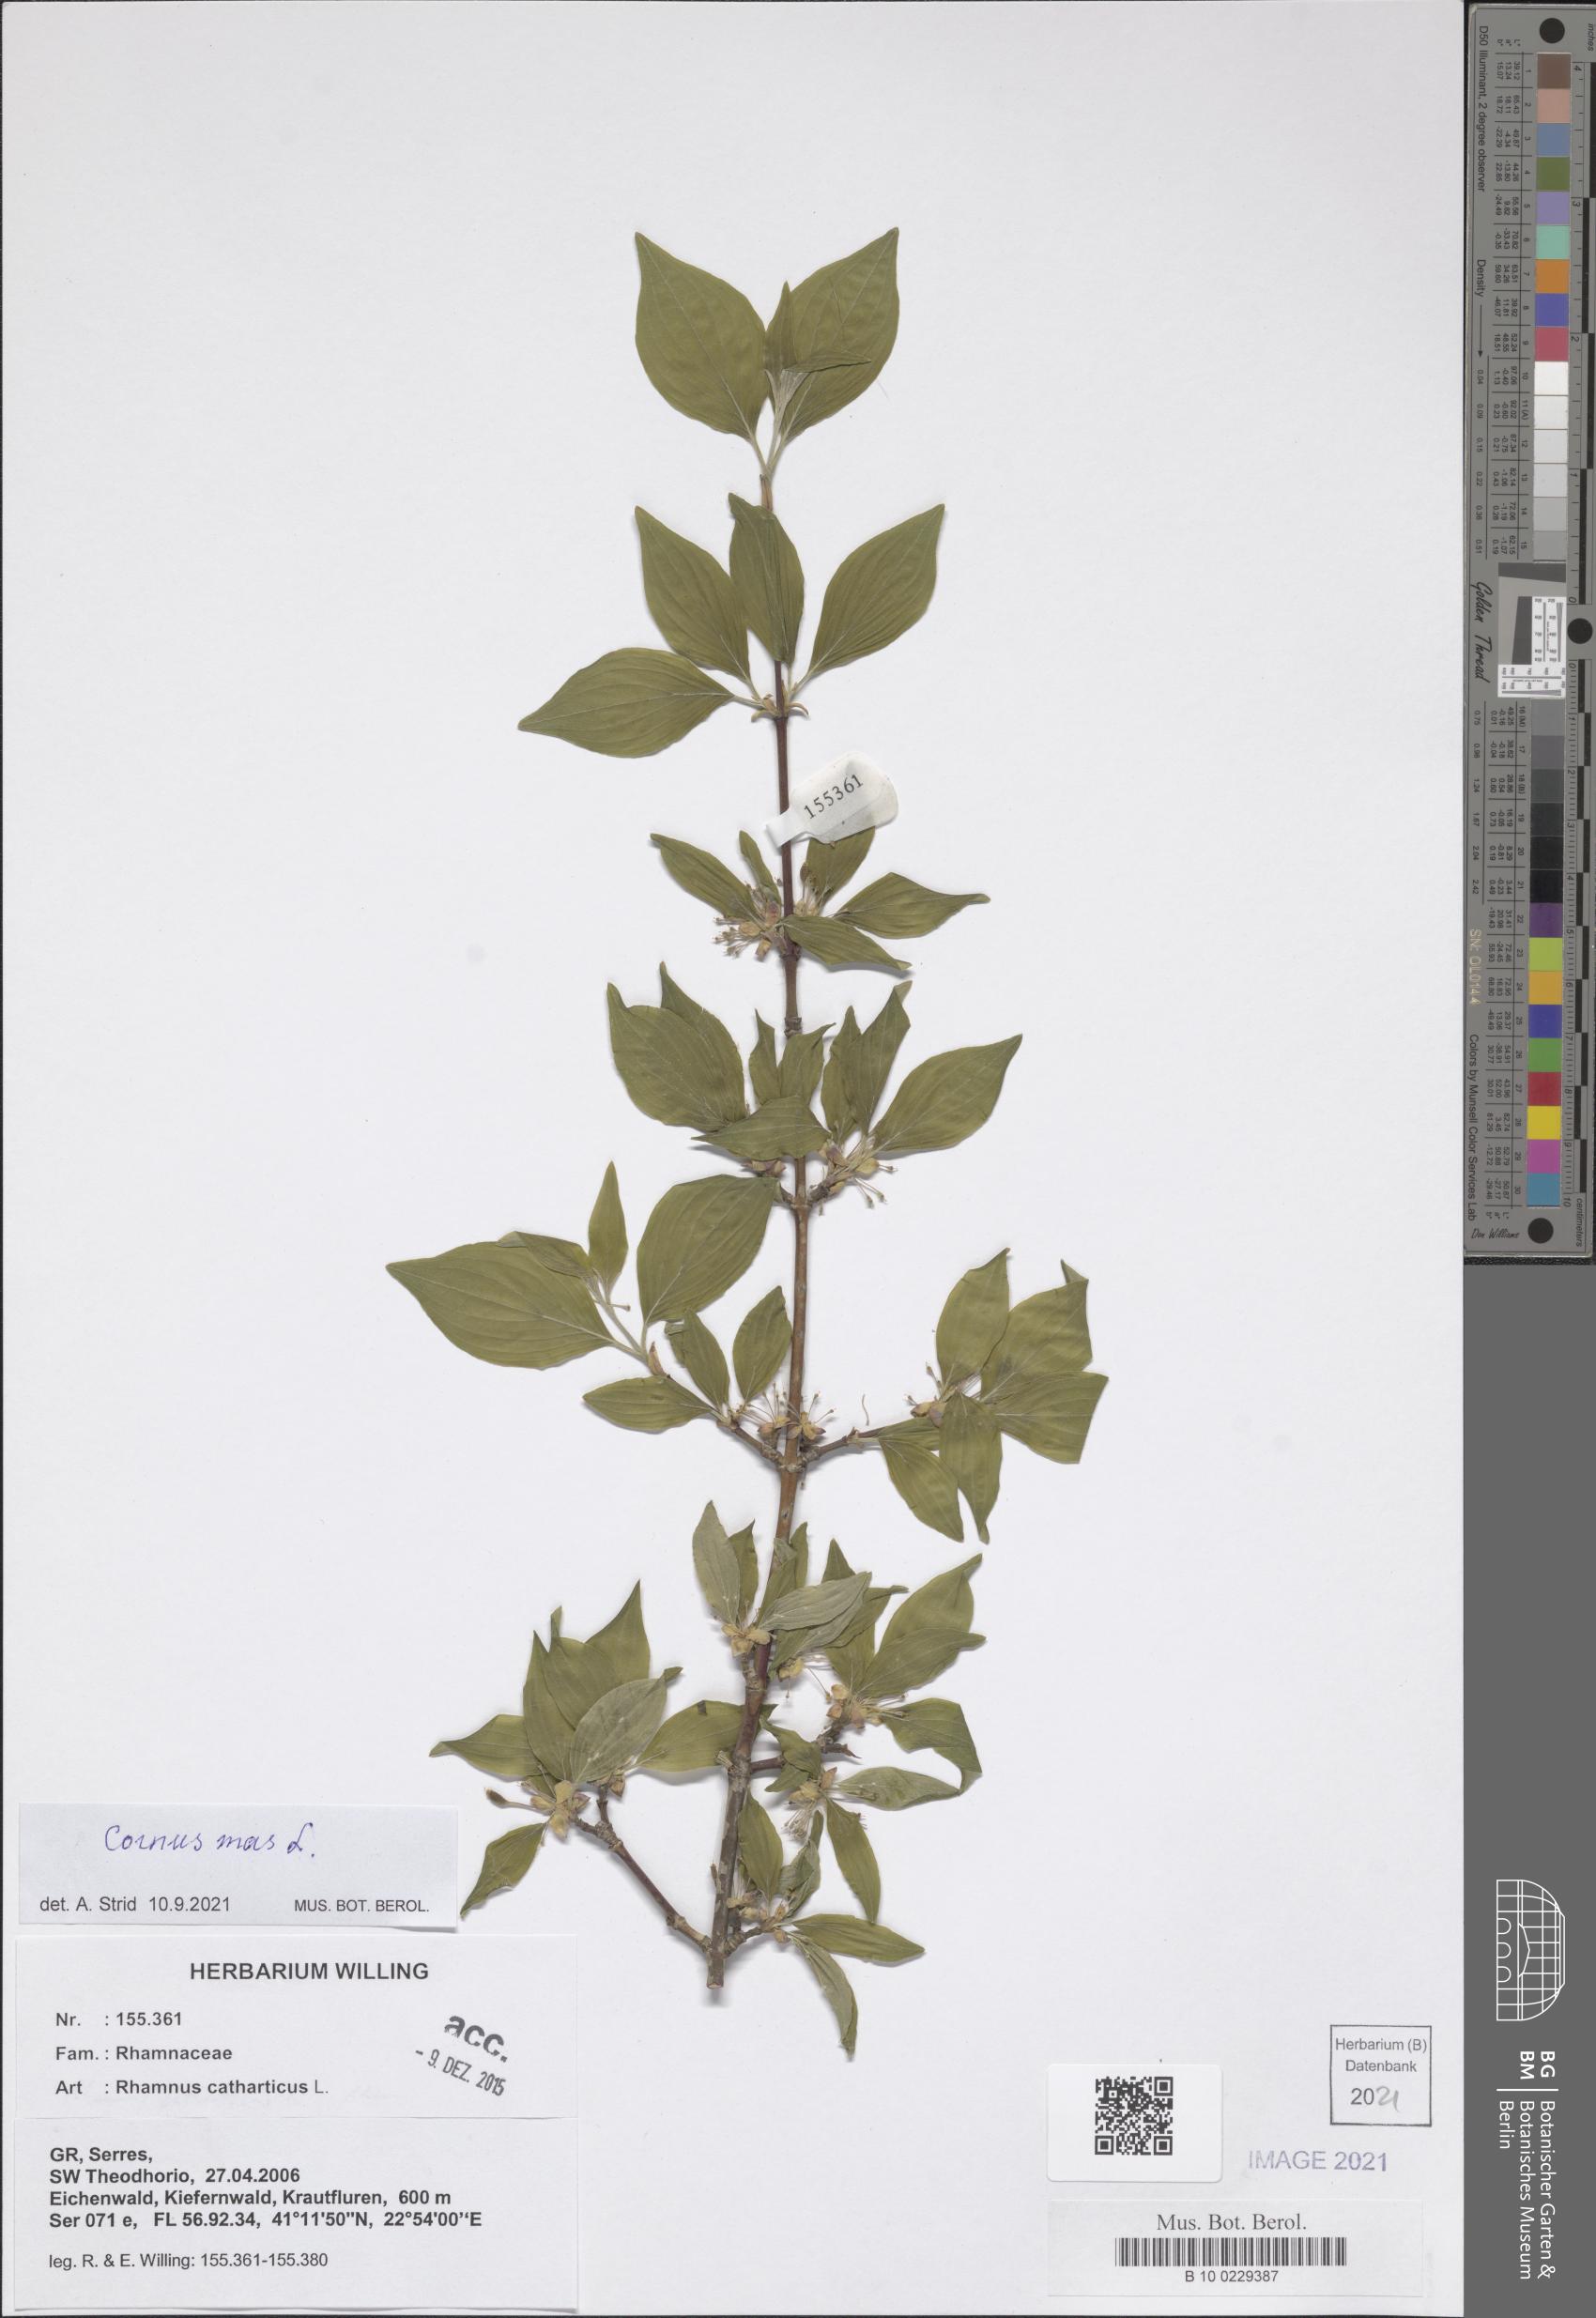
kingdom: Plantae
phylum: Tracheophyta
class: Magnoliopsida
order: Cornales
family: Cornaceae
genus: Cornus
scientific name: Cornus mas
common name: Cornelian-cherry
